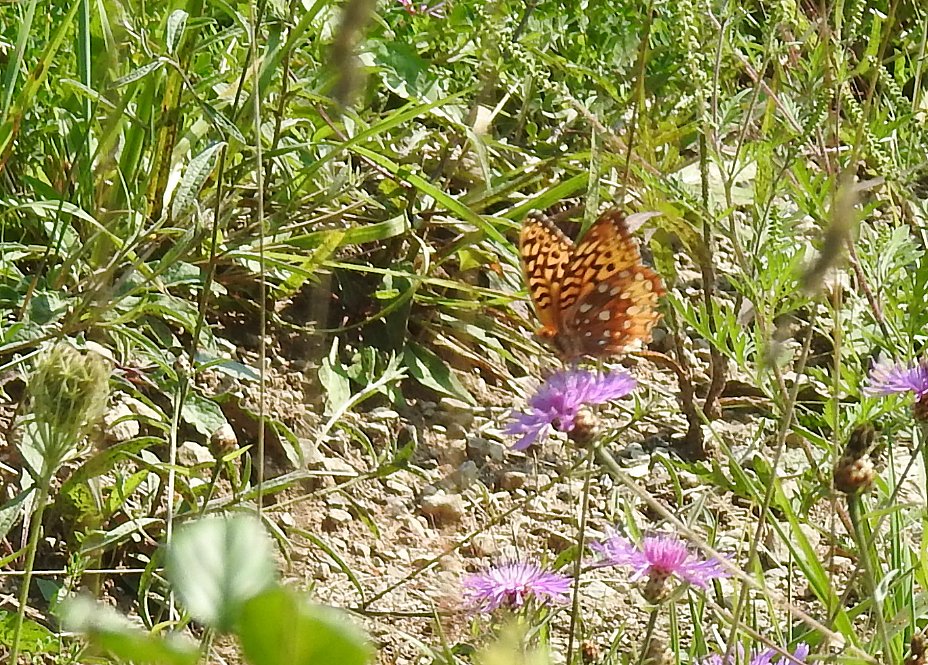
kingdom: Animalia
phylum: Arthropoda
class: Insecta
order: Lepidoptera
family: Nymphalidae
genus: Speyeria
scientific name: Speyeria cybele
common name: Great Spangled Fritillary
